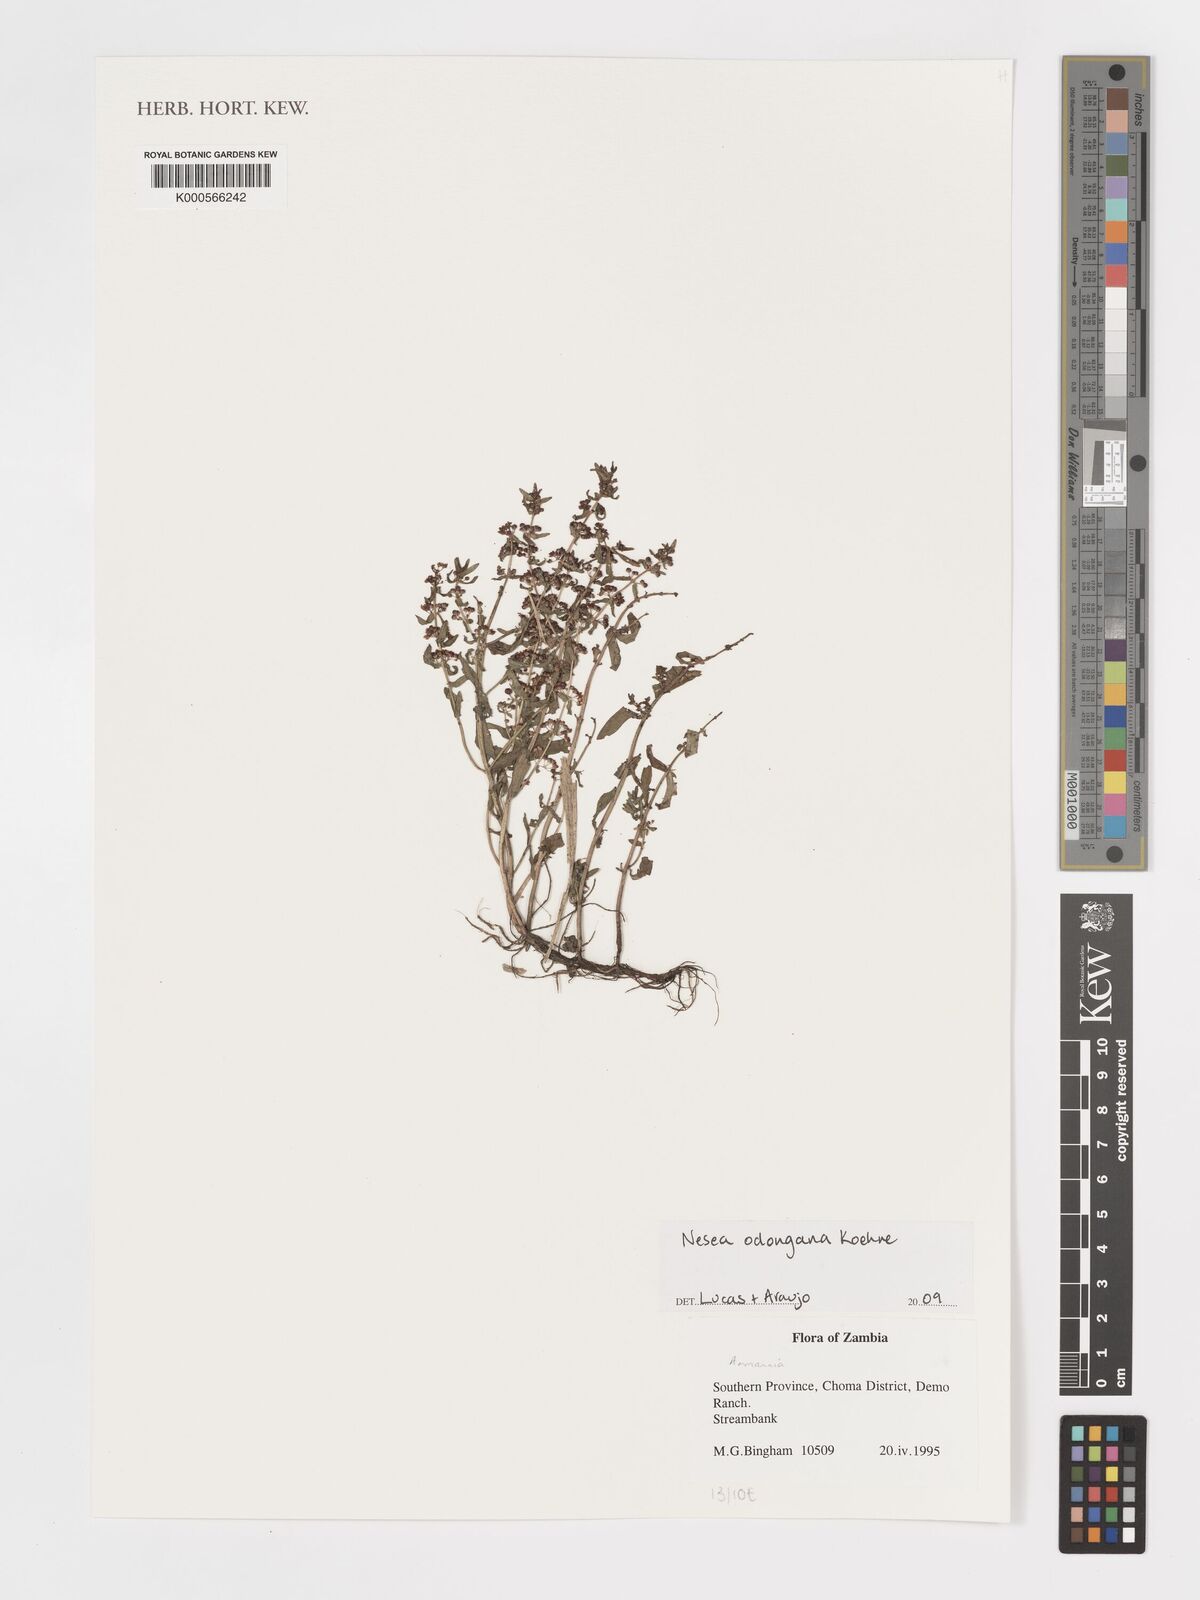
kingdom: Plantae
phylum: Tracheophyta
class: Magnoliopsida
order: Saxifragales
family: Haloragaceae
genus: Laurembergia
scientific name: Laurembergia
